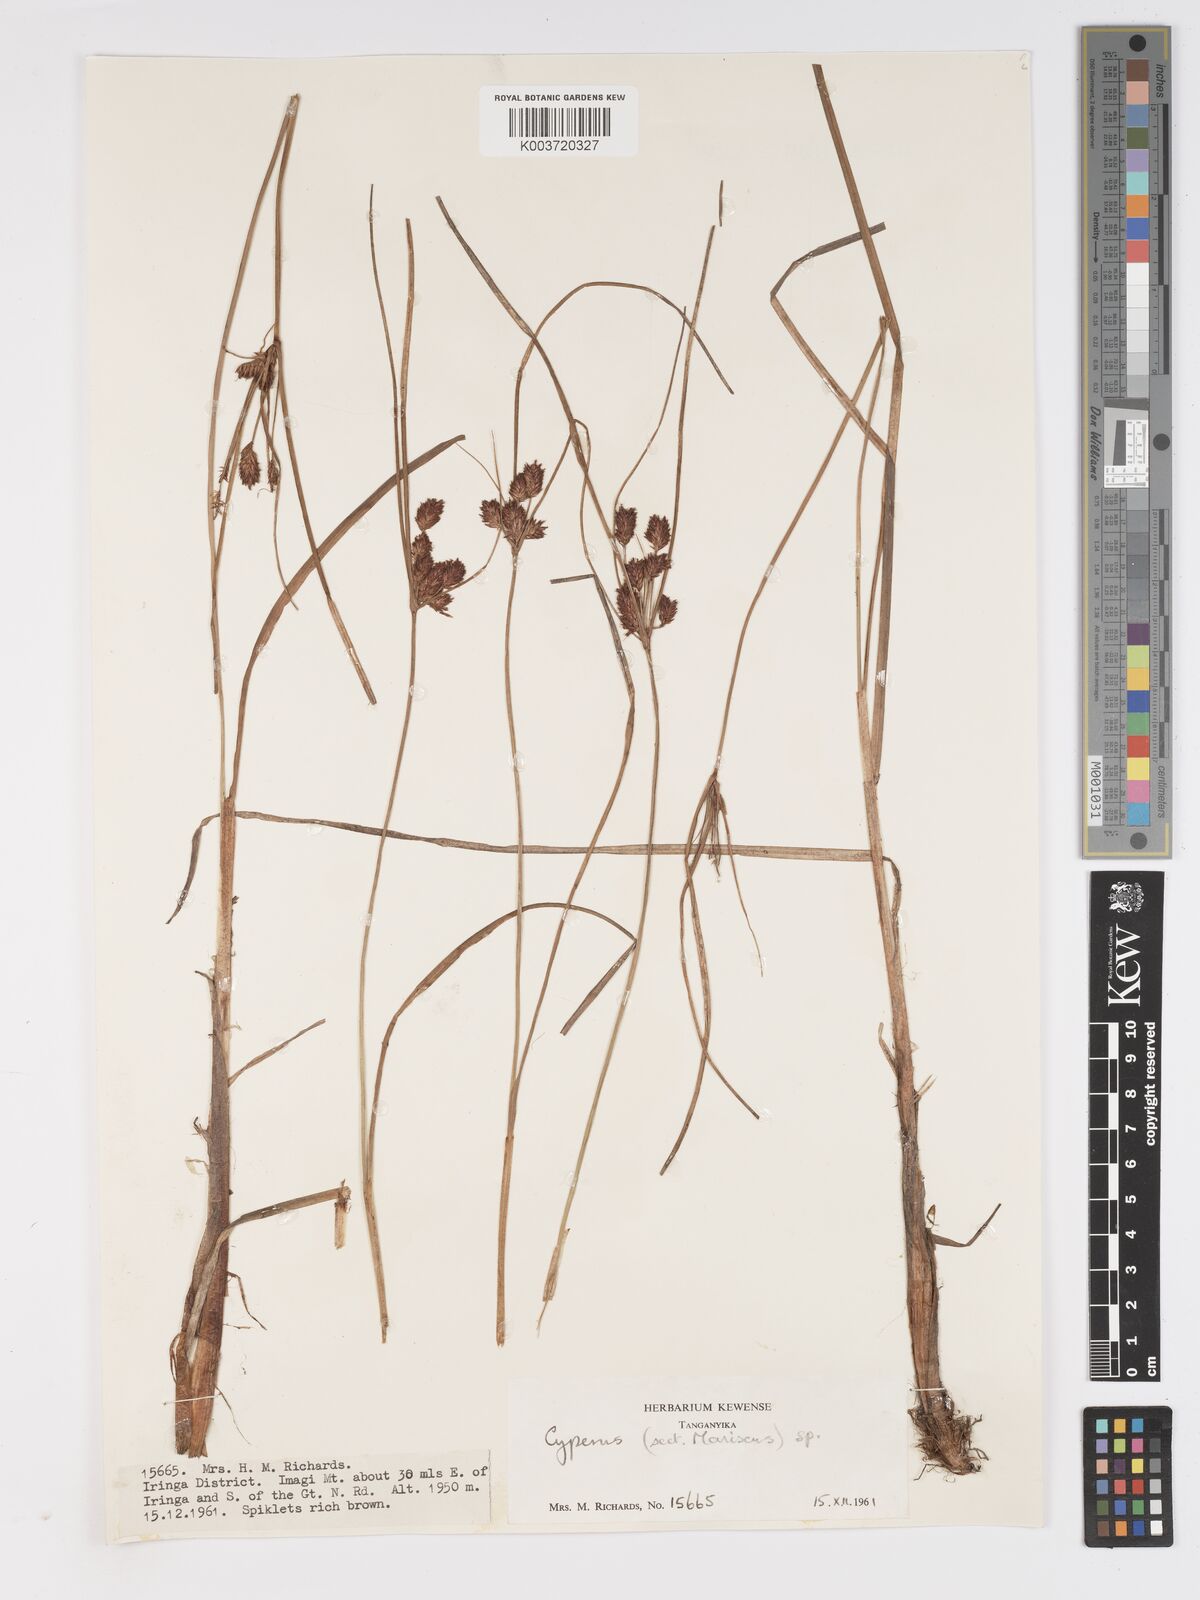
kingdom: Plantae
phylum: Tracheophyta
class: Liliopsida
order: Poales
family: Cyperaceae
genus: Cyperus
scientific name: Cyperus
